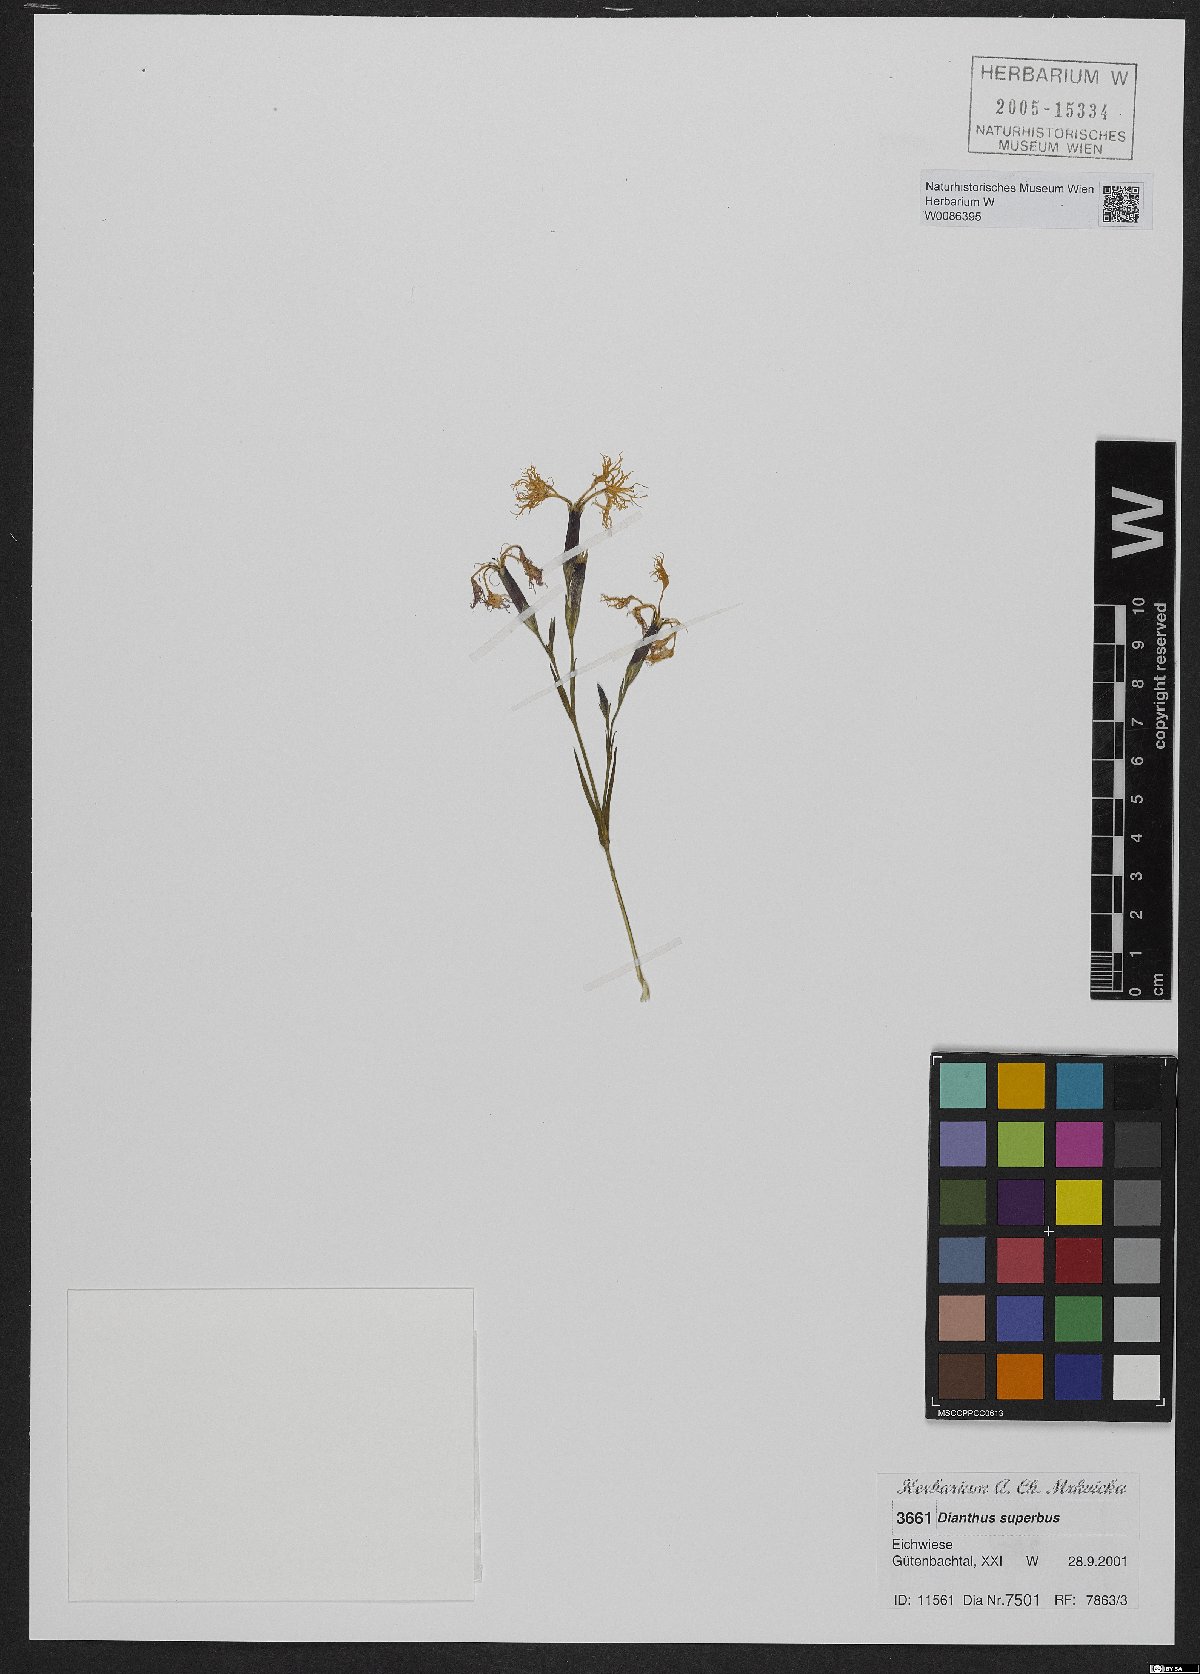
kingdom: Plantae
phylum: Tracheophyta
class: Magnoliopsida
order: Caryophyllales
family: Caryophyllaceae
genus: Dianthus
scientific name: Dianthus superbus
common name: Fringed pink
